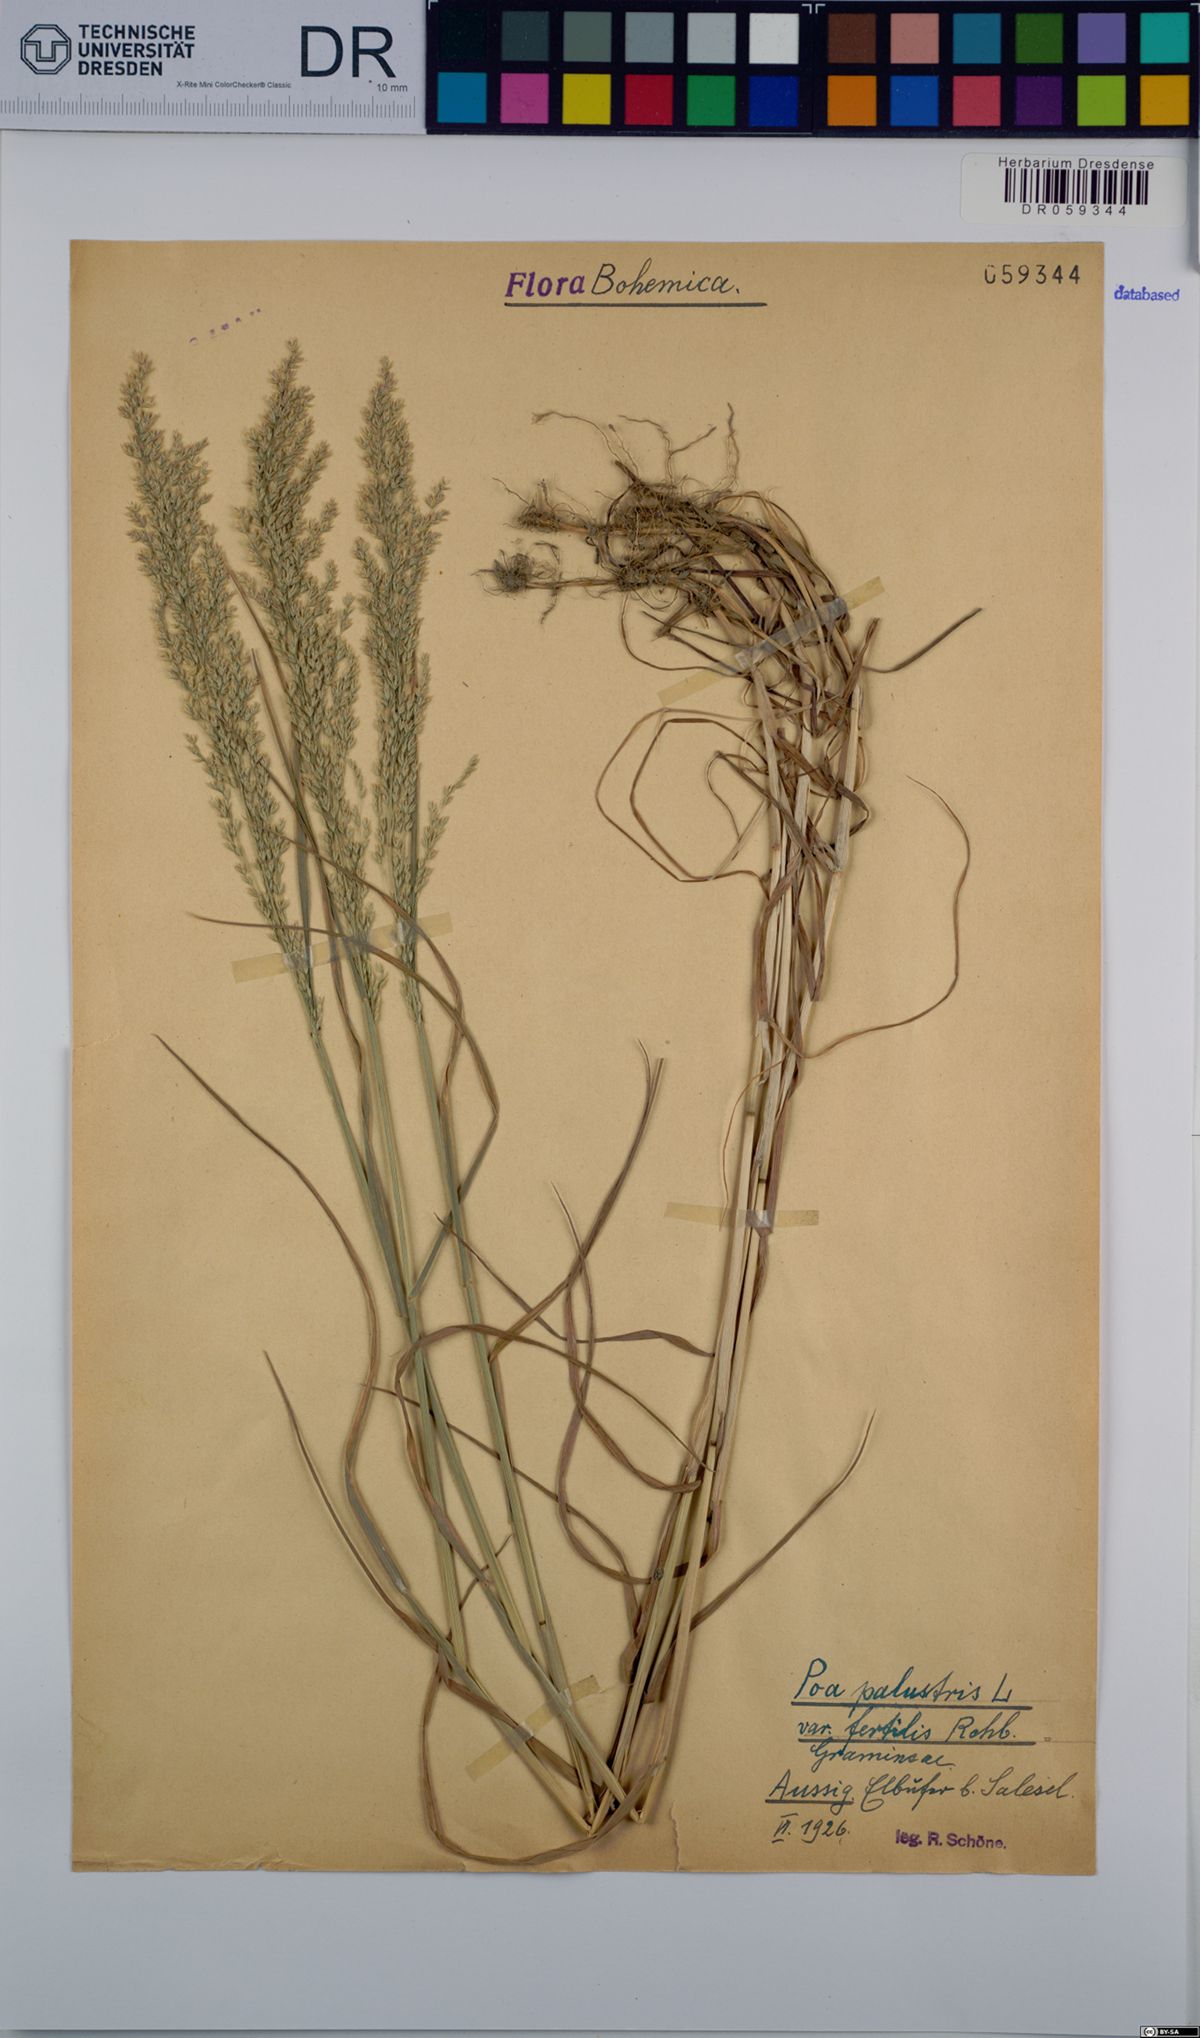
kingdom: Plantae
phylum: Tracheophyta
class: Liliopsida
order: Poales
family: Poaceae
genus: Poa
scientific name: Poa palustris
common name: Swamp meadow-grass
